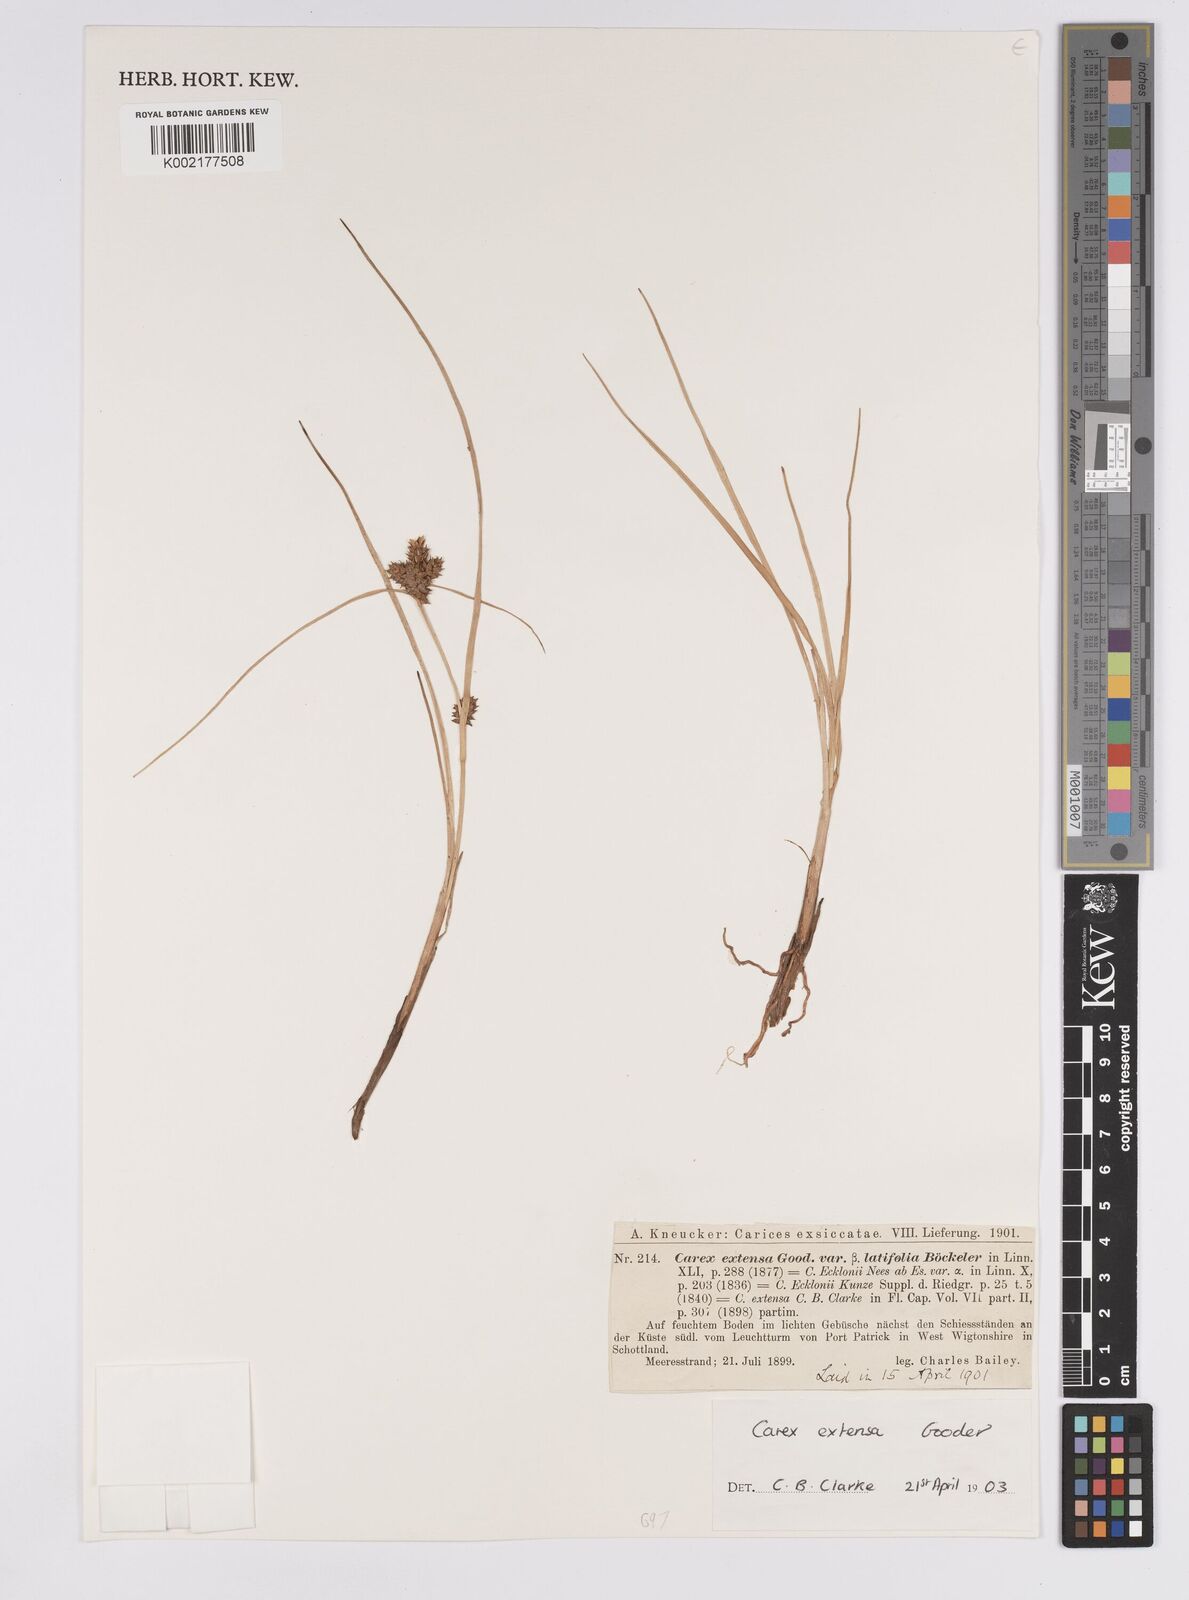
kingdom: Plantae
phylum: Tracheophyta
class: Liliopsida
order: Poales
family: Cyperaceae
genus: Carex
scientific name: Carex extensa
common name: Long-bracted sedge
